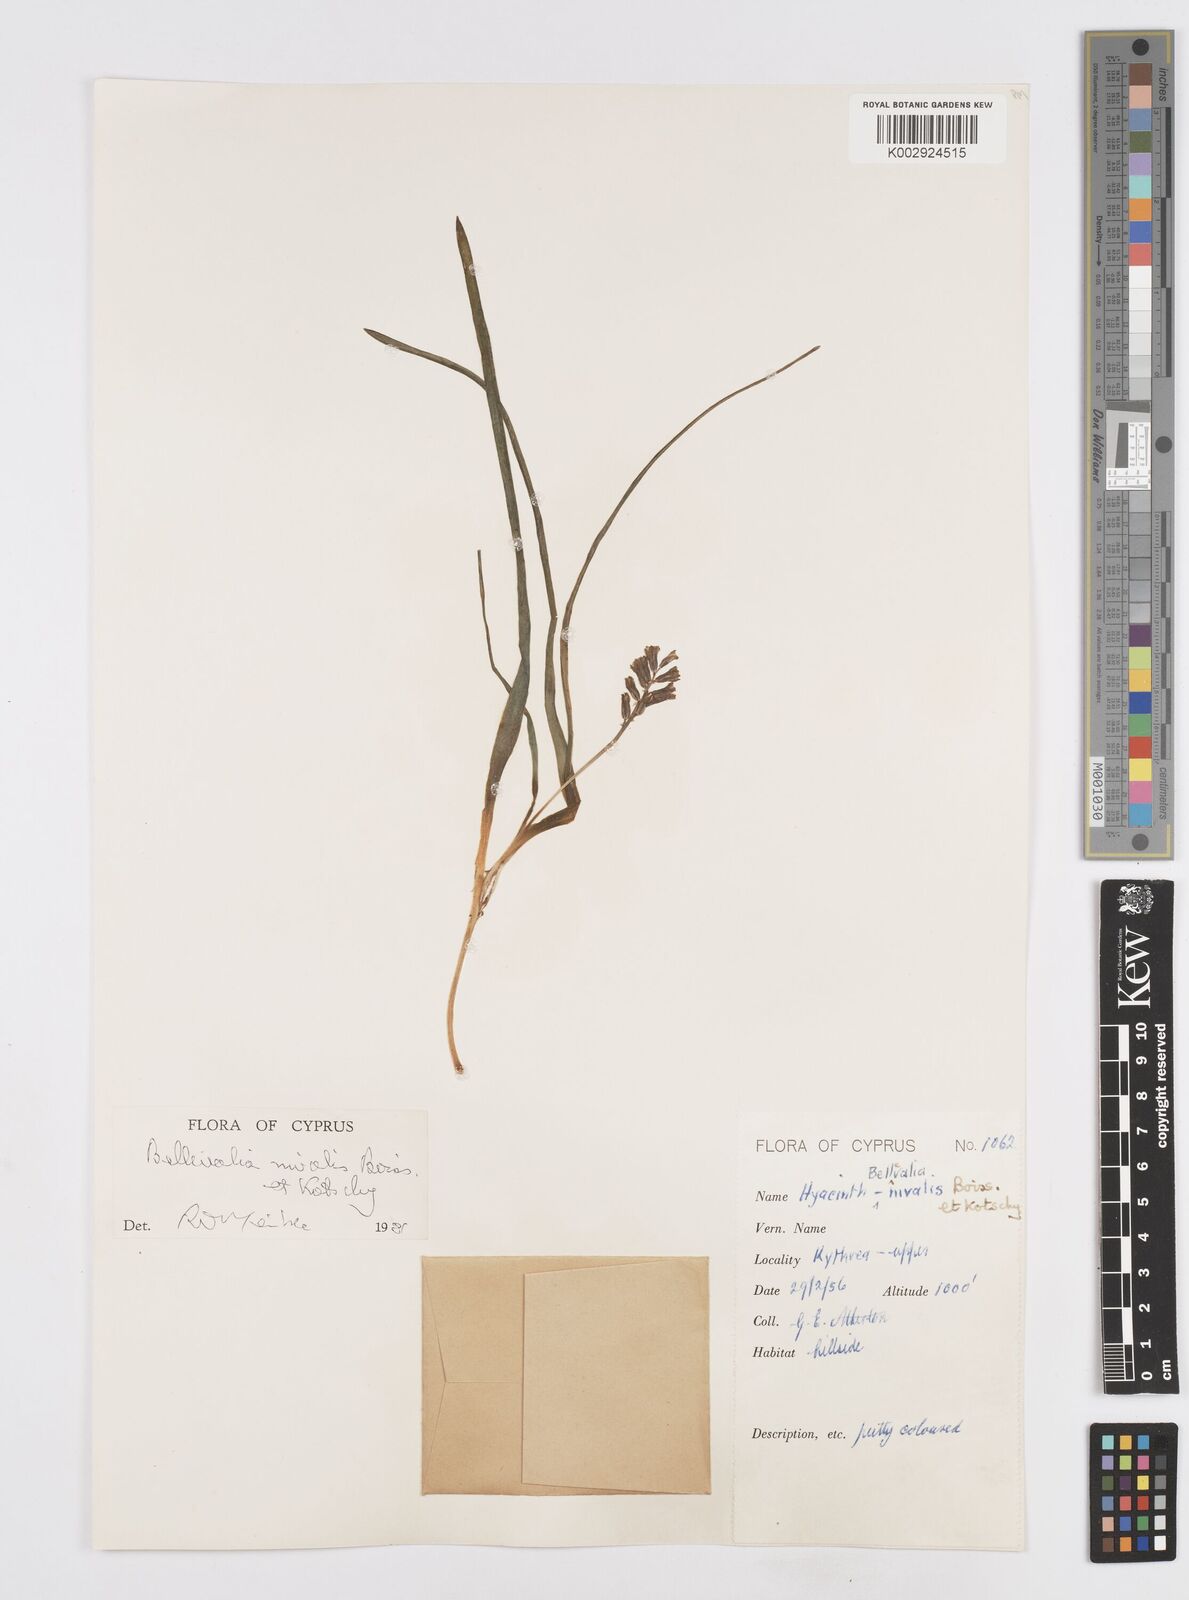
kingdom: Plantae
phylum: Tracheophyta
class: Liliopsida
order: Asparagales
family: Asparagaceae
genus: Bellevalia
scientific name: Bellevalia nivalis
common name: Snow bellevalia
